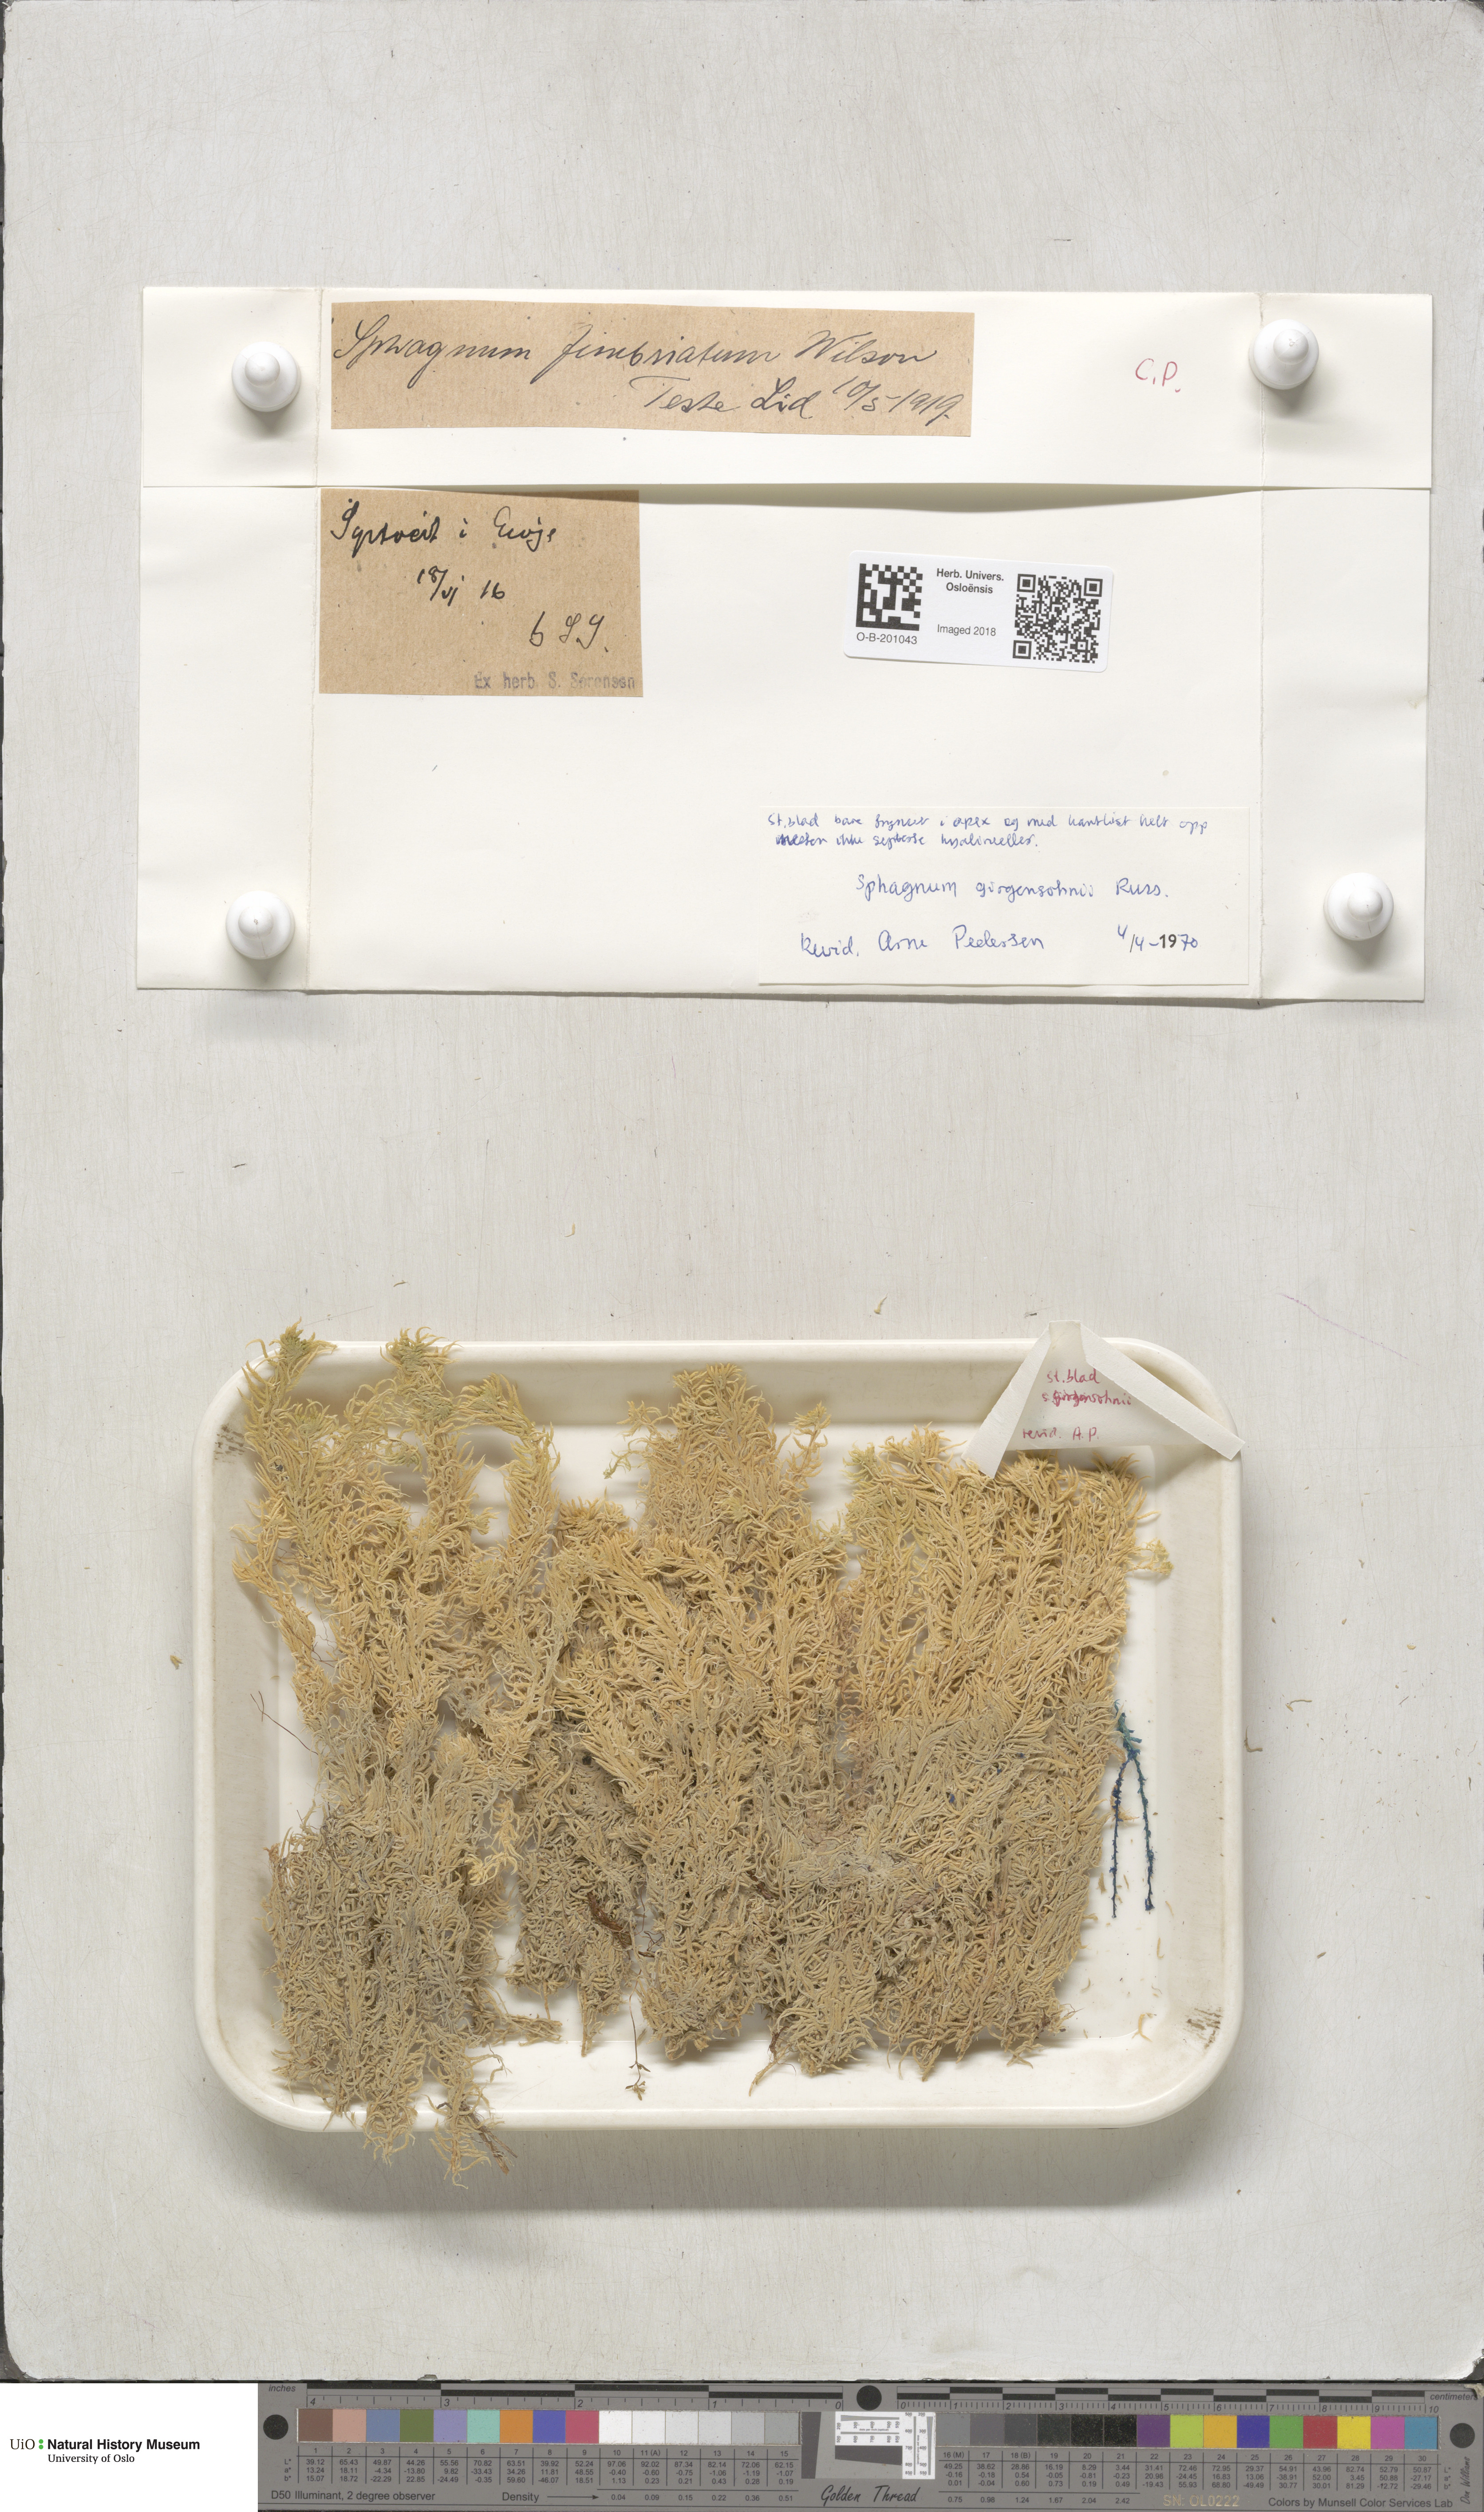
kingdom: Plantae
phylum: Bryophyta
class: Sphagnopsida
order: Sphagnales
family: Sphagnaceae
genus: Sphagnum
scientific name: Sphagnum girgensohnii
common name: Girgensohn's peat moss
